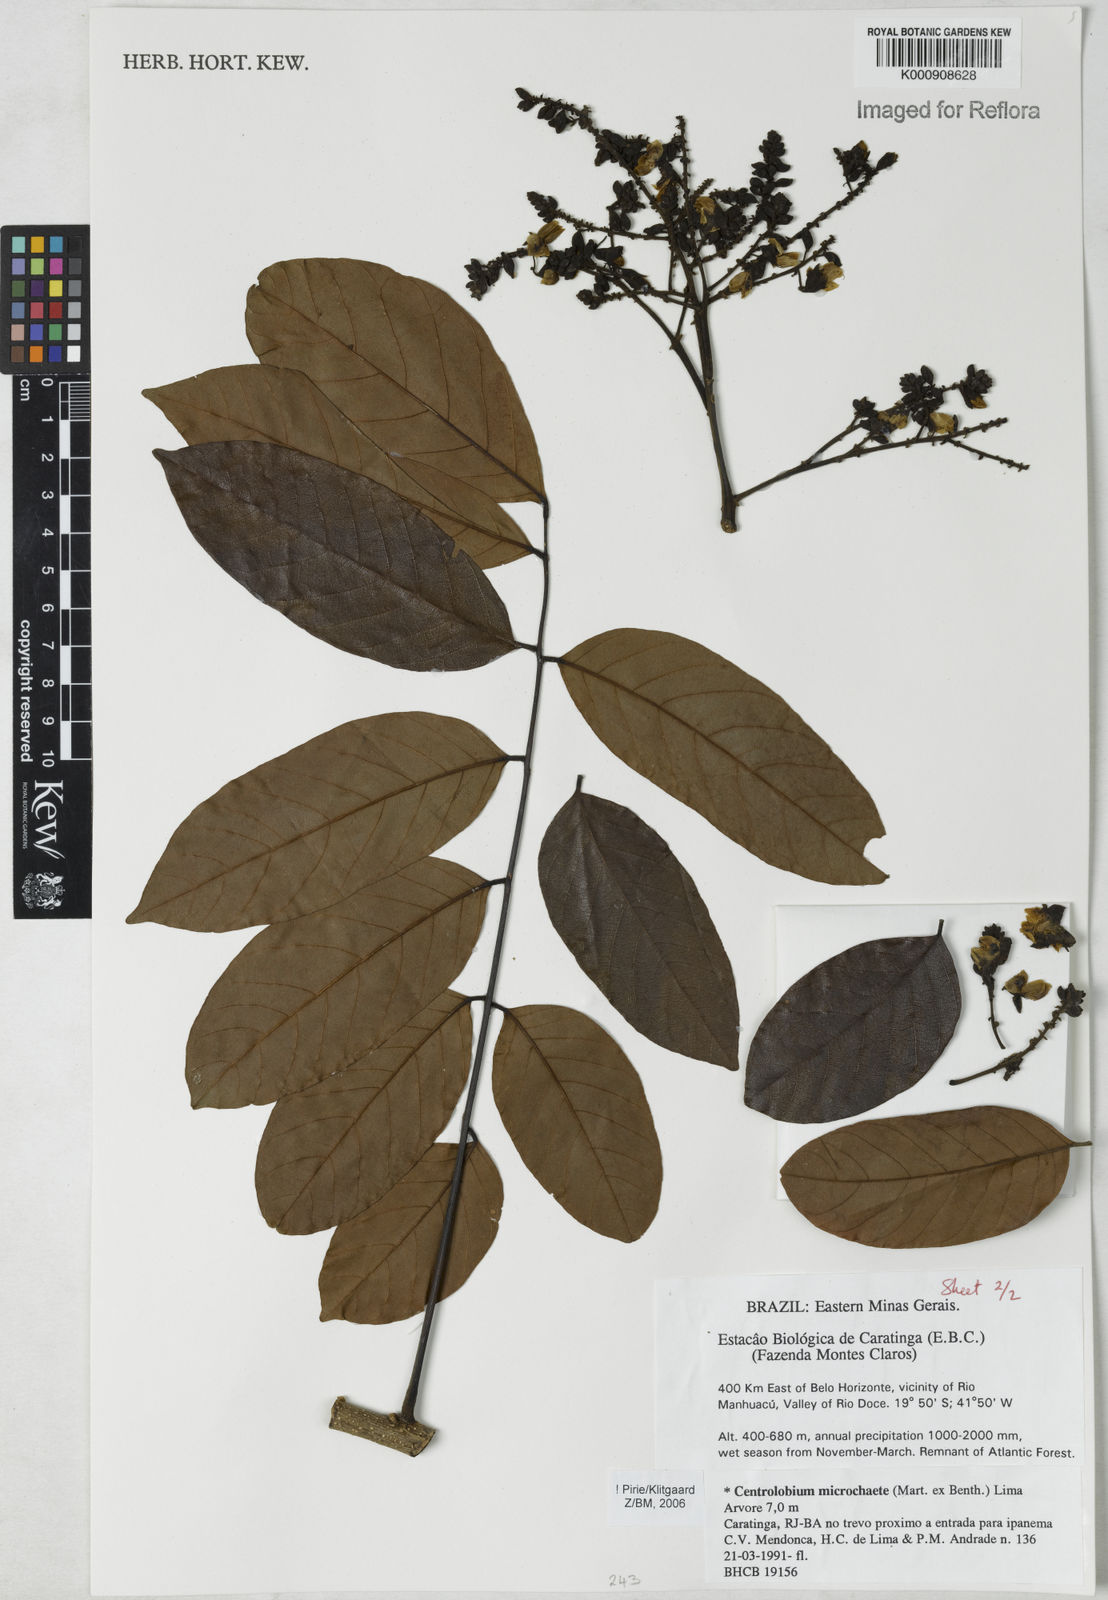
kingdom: Plantae
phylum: Tracheophyta
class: Magnoliopsida
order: Fabales
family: Fabaceae
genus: Centrolobium
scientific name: Centrolobium microchaete
